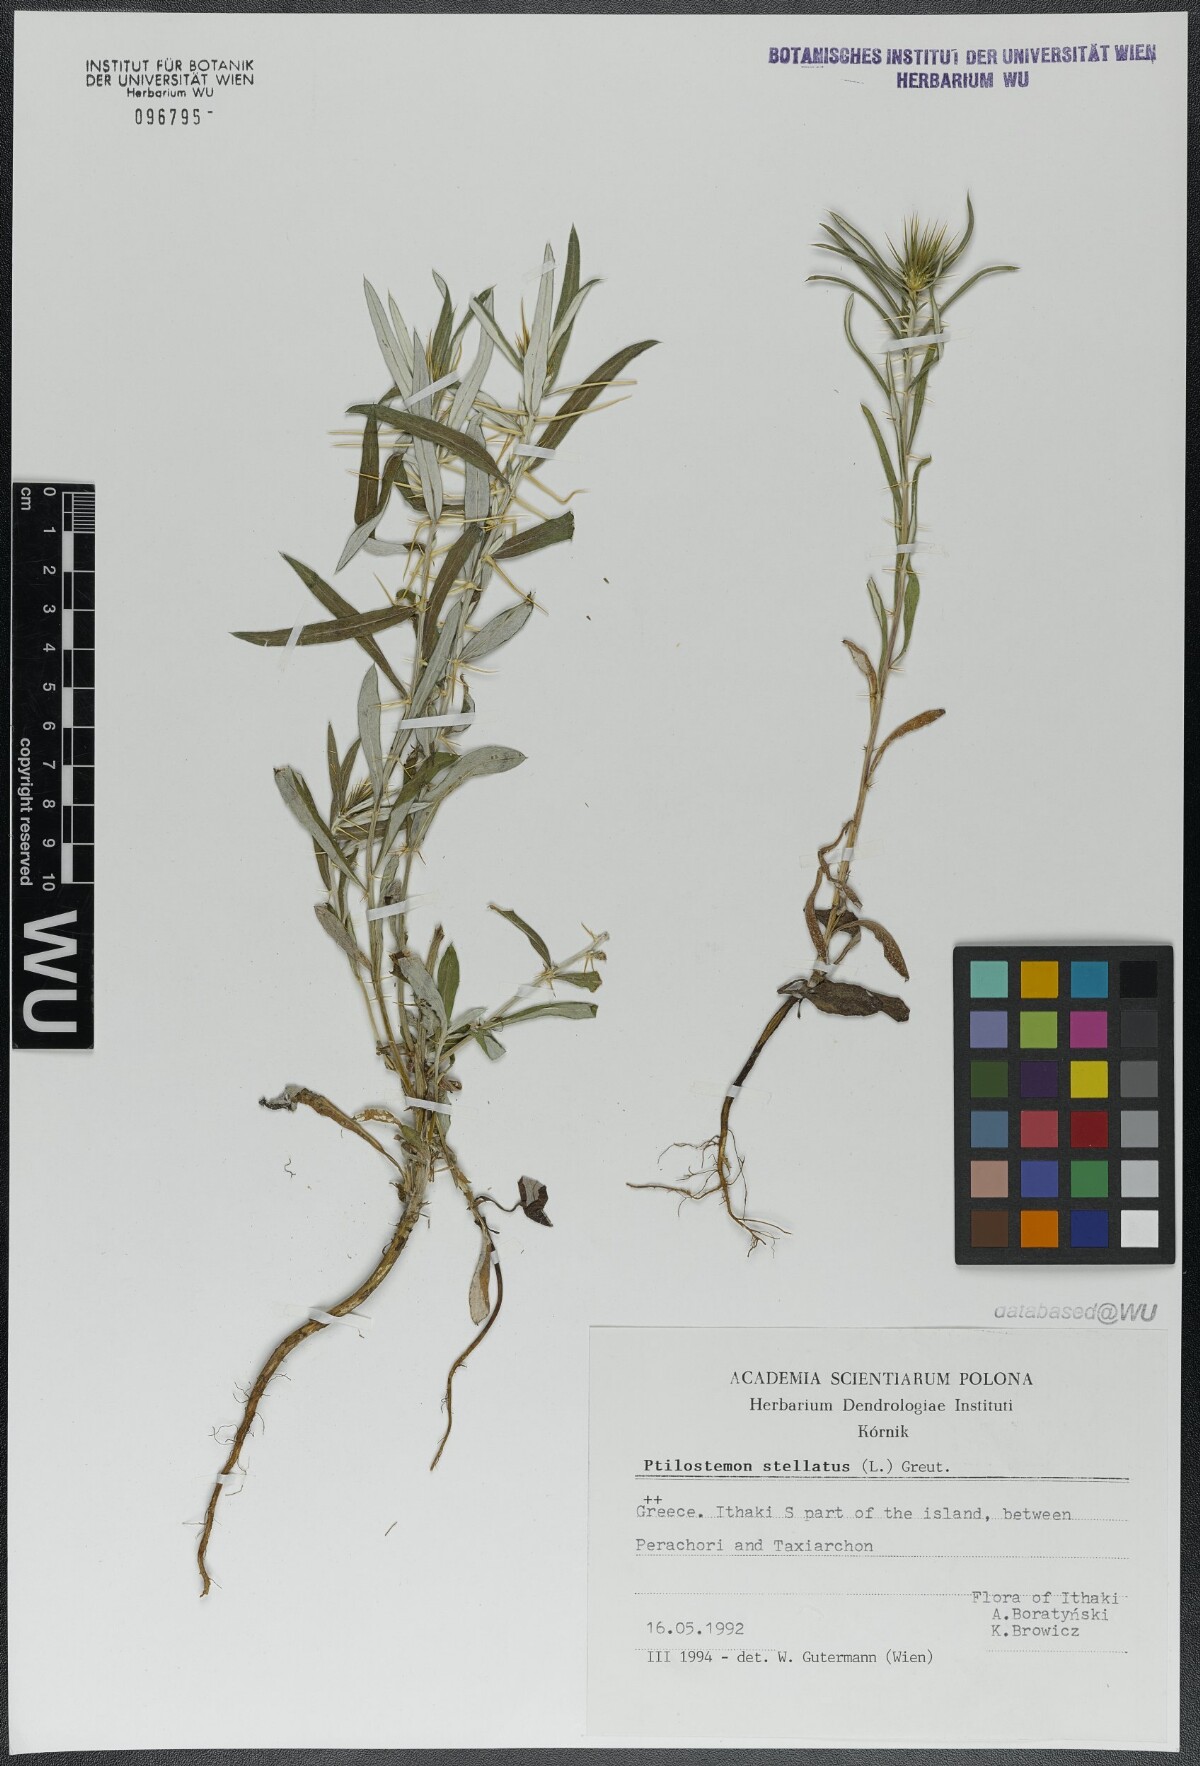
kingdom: Plantae
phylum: Tracheophyta
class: Magnoliopsida
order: Asterales
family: Asteraceae
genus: Ptilostemon
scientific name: Ptilostemon stellatus
